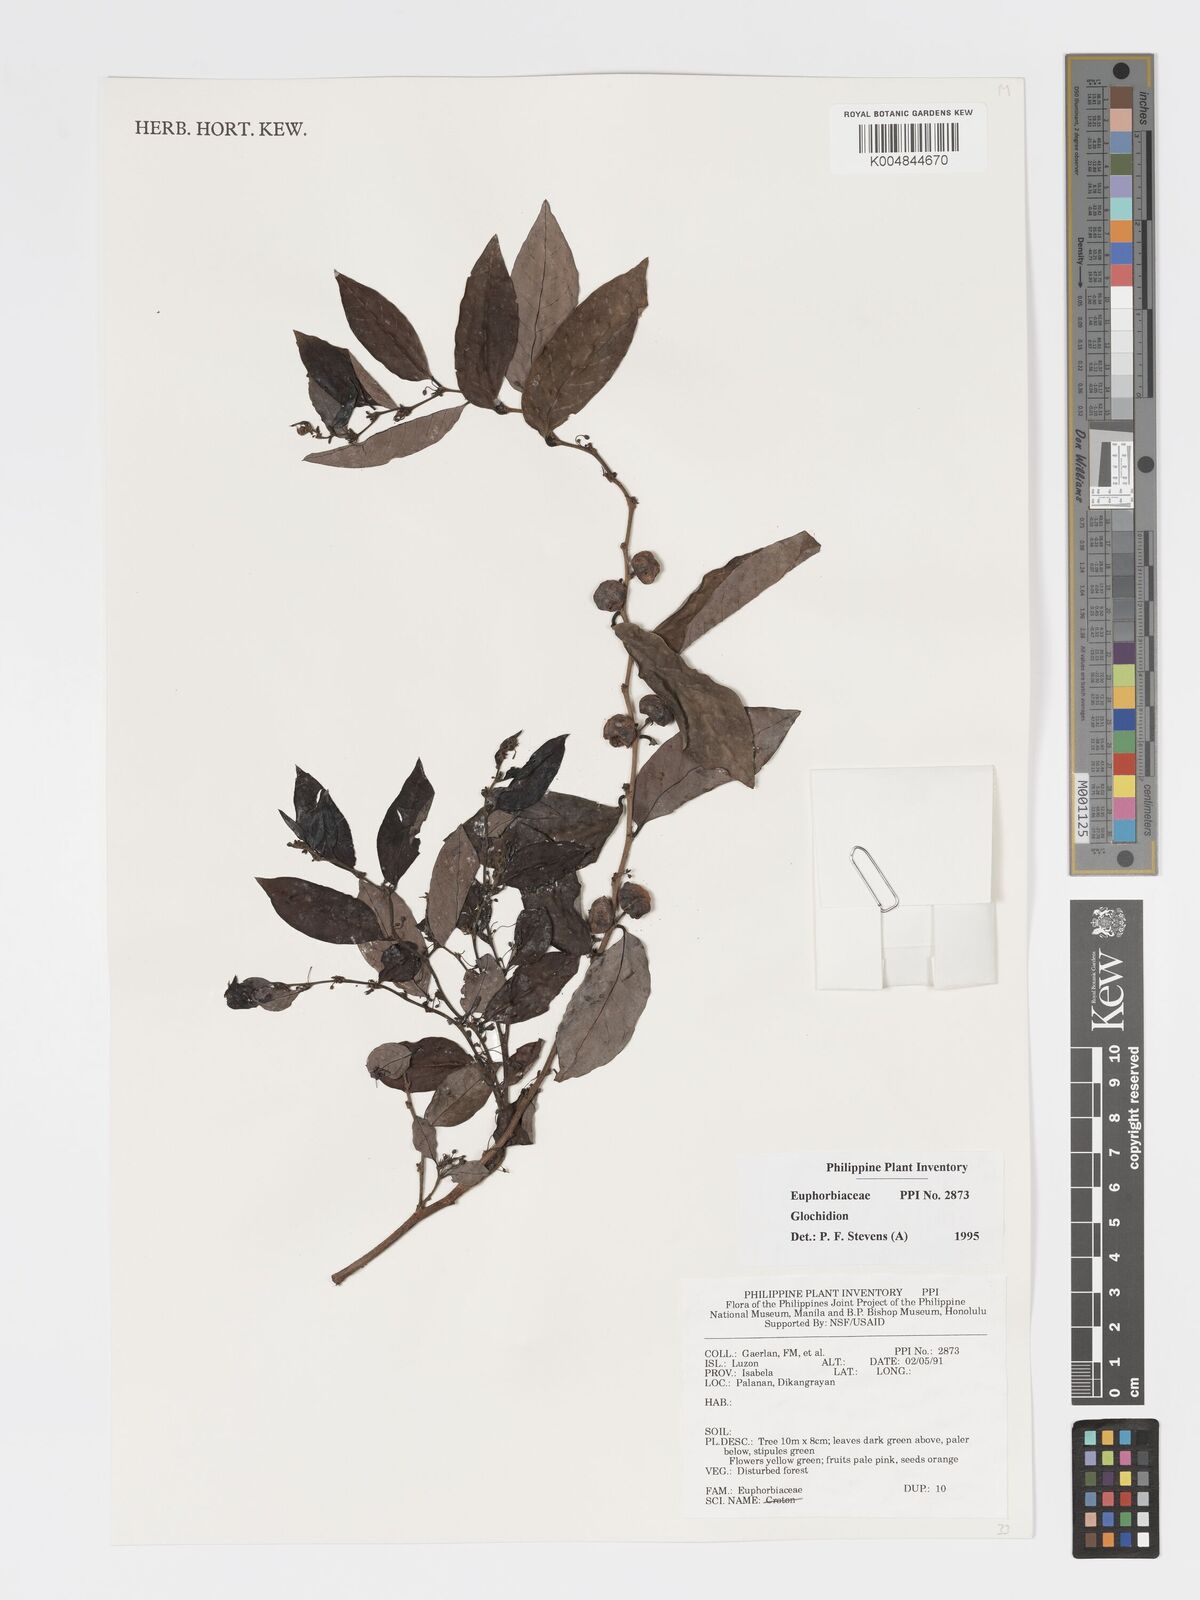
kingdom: Plantae
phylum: Tracheophyta
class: Magnoliopsida
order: Malpighiales
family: Phyllanthaceae
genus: Glochidion
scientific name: Glochidion
